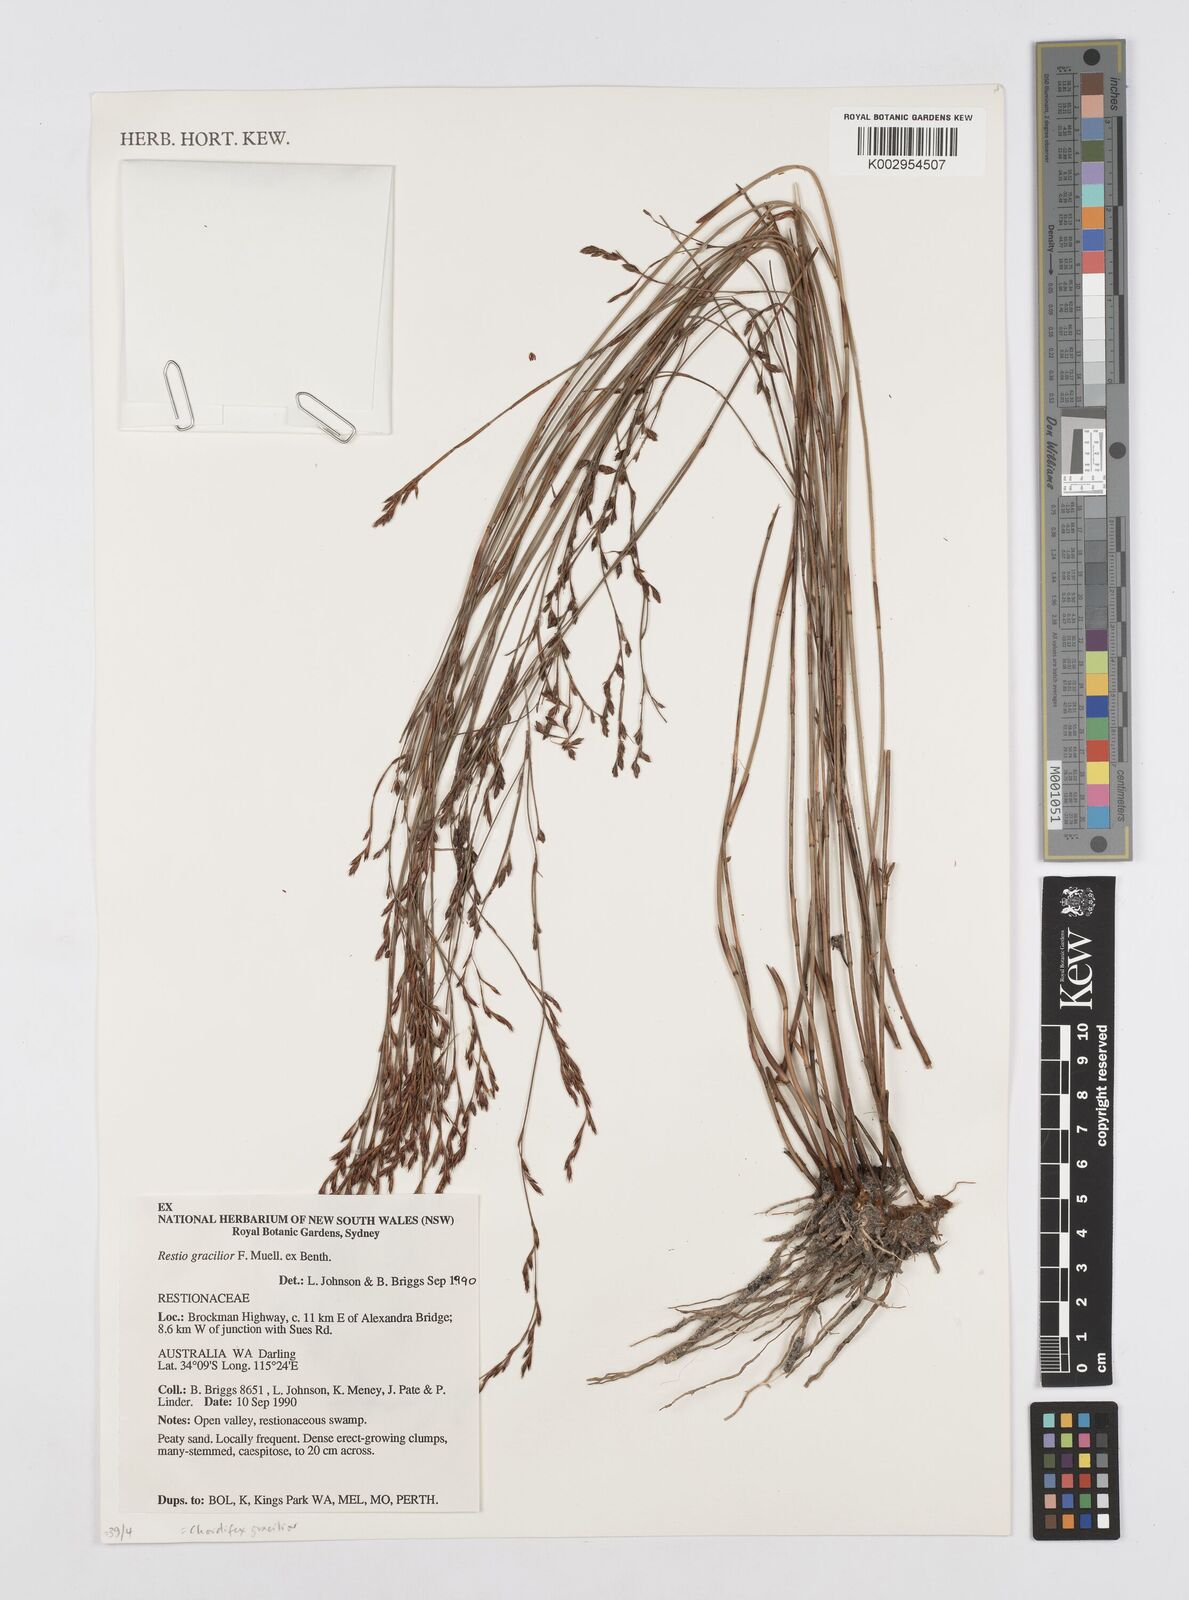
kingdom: Plantae
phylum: Tracheophyta
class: Liliopsida
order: Poales
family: Restionaceae
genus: Chordifex
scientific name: Chordifex gracilior
